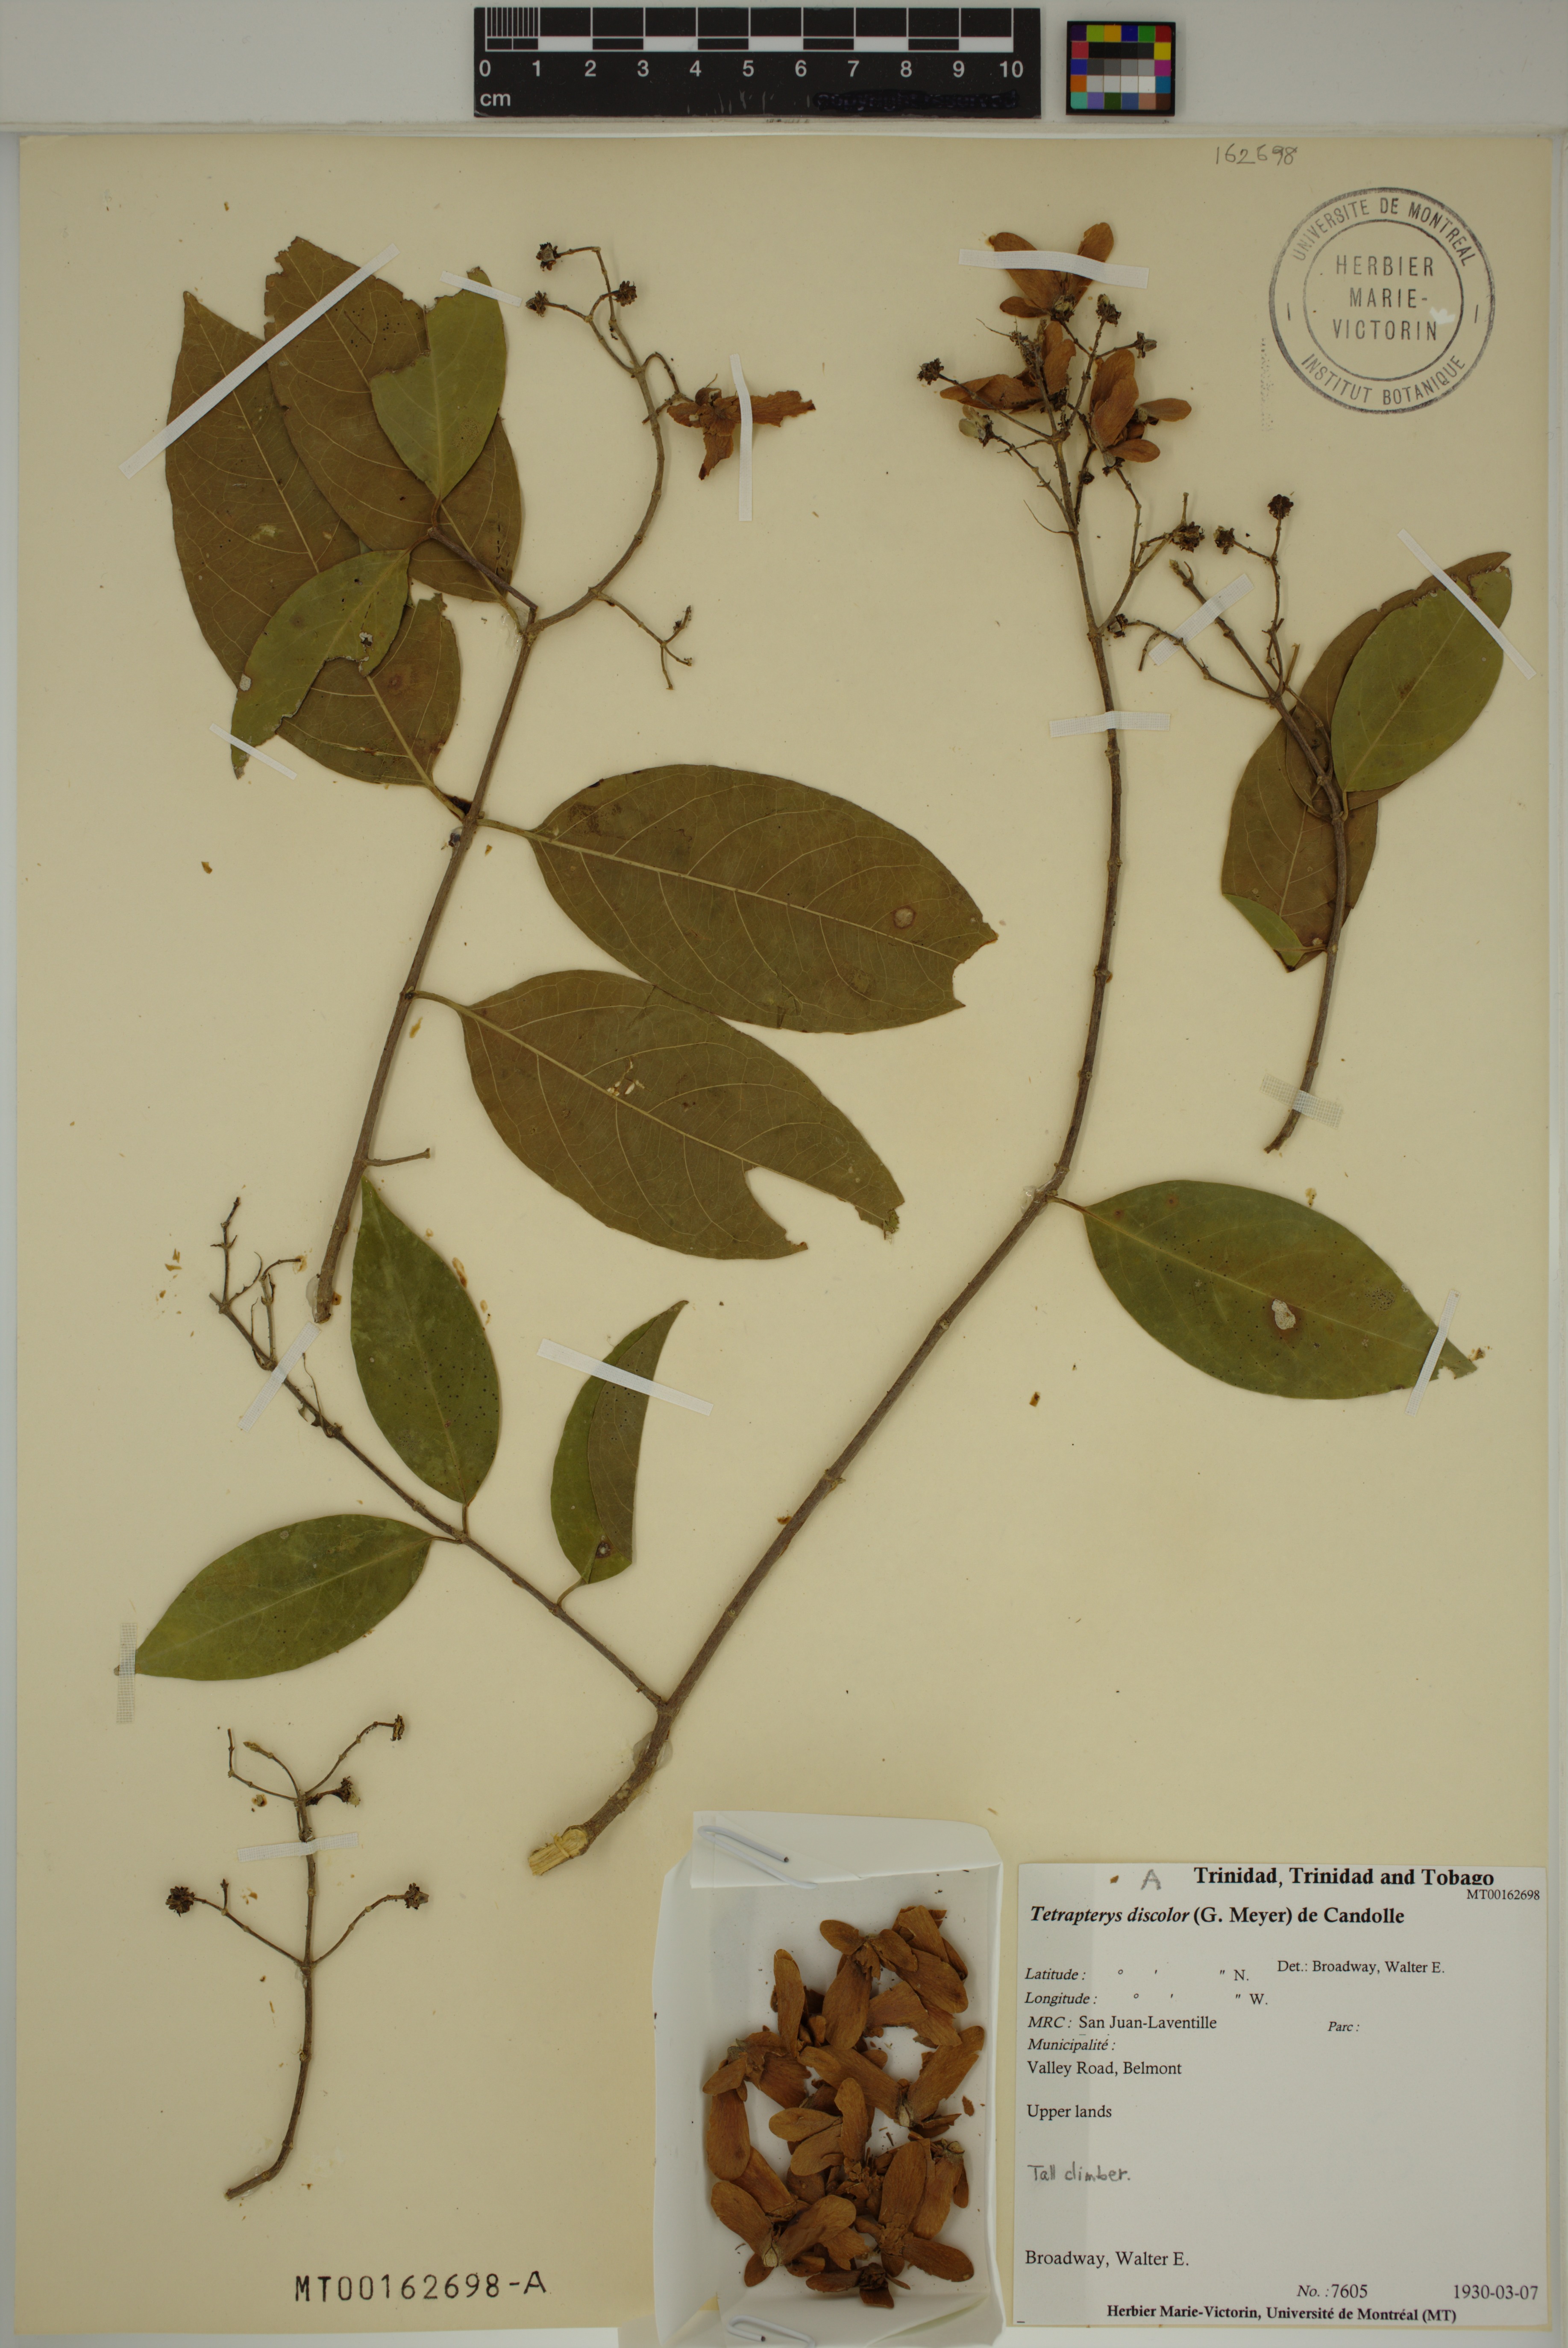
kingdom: Plantae
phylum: Tracheophyta
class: Magnoliopsida
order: Malpighiales
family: Malpighiaceae
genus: Tetrapterys
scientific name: Tetrapterys discolor
